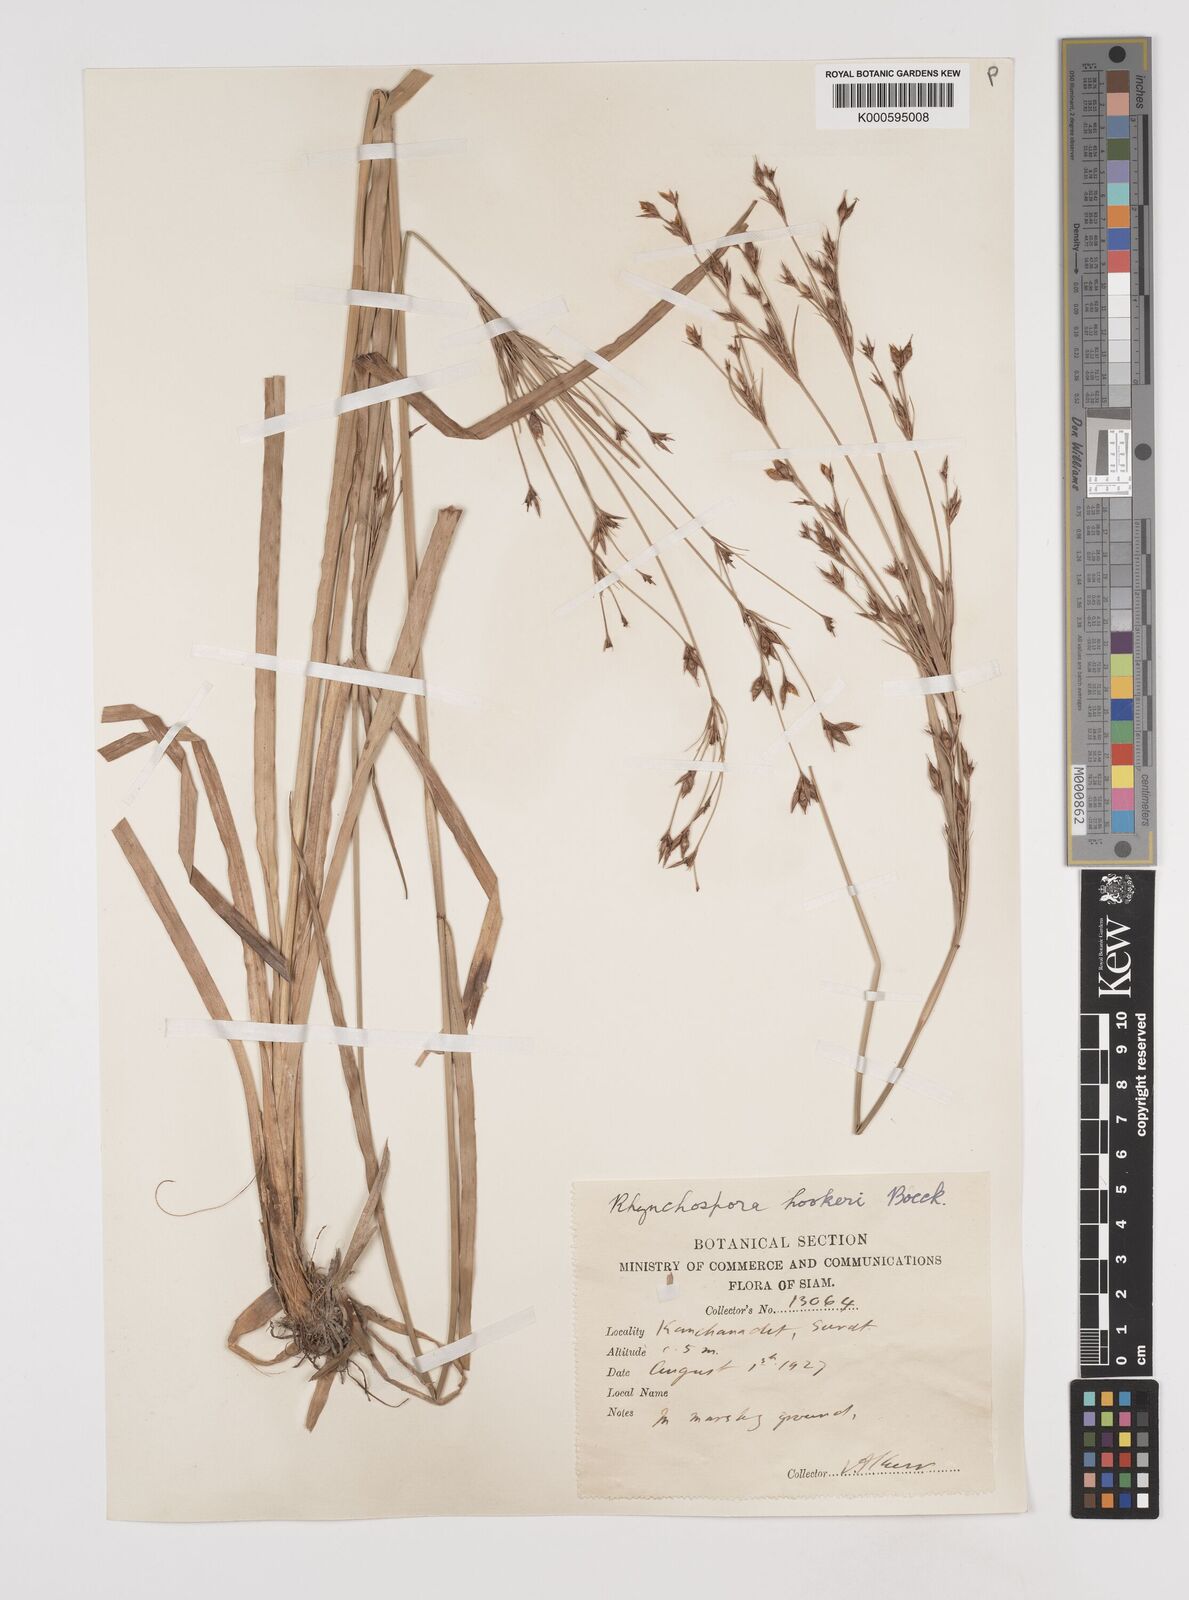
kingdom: Plantae
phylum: Tracheophyta
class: Liliopsida
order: Poales
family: Cyperaceae
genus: Rhynchospora
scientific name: Rhynchospora hookeri
